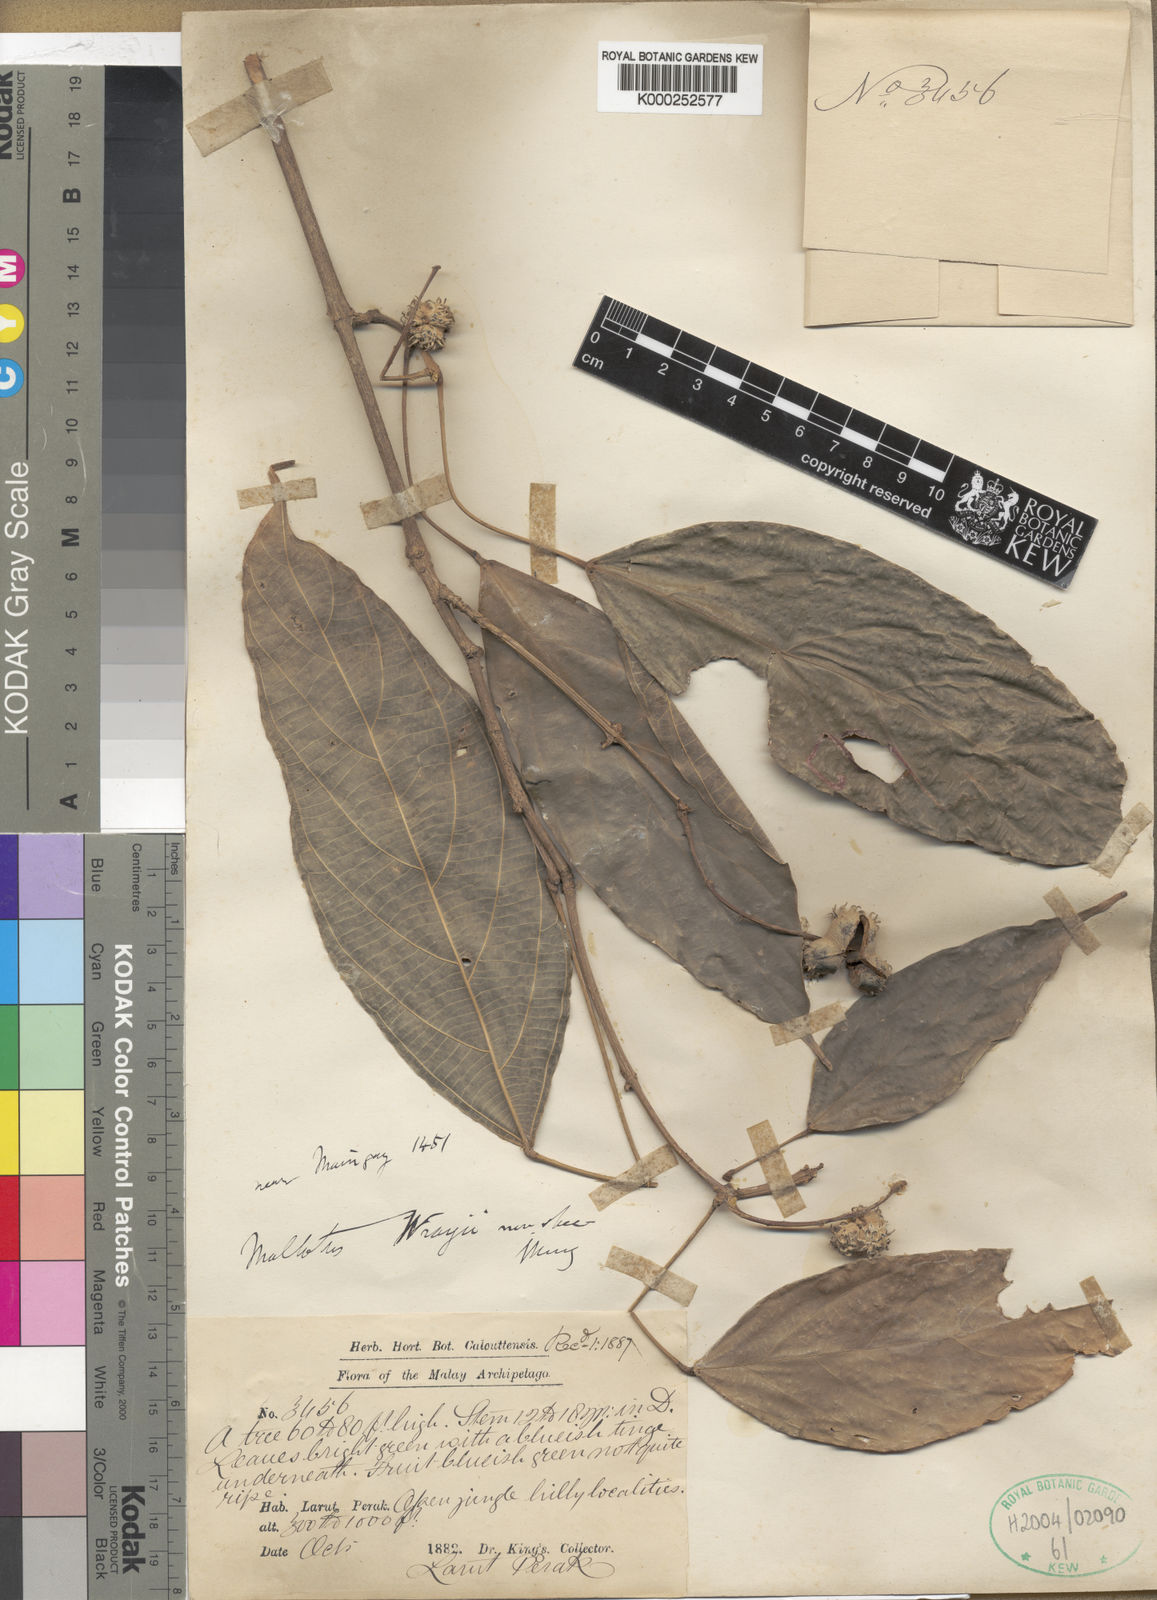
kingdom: Plantae
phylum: Tracheophyta
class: Magnoliopsida
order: Malpighiales
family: Euphorbiaceae
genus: Mallotus
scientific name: Mallotus wrayi
